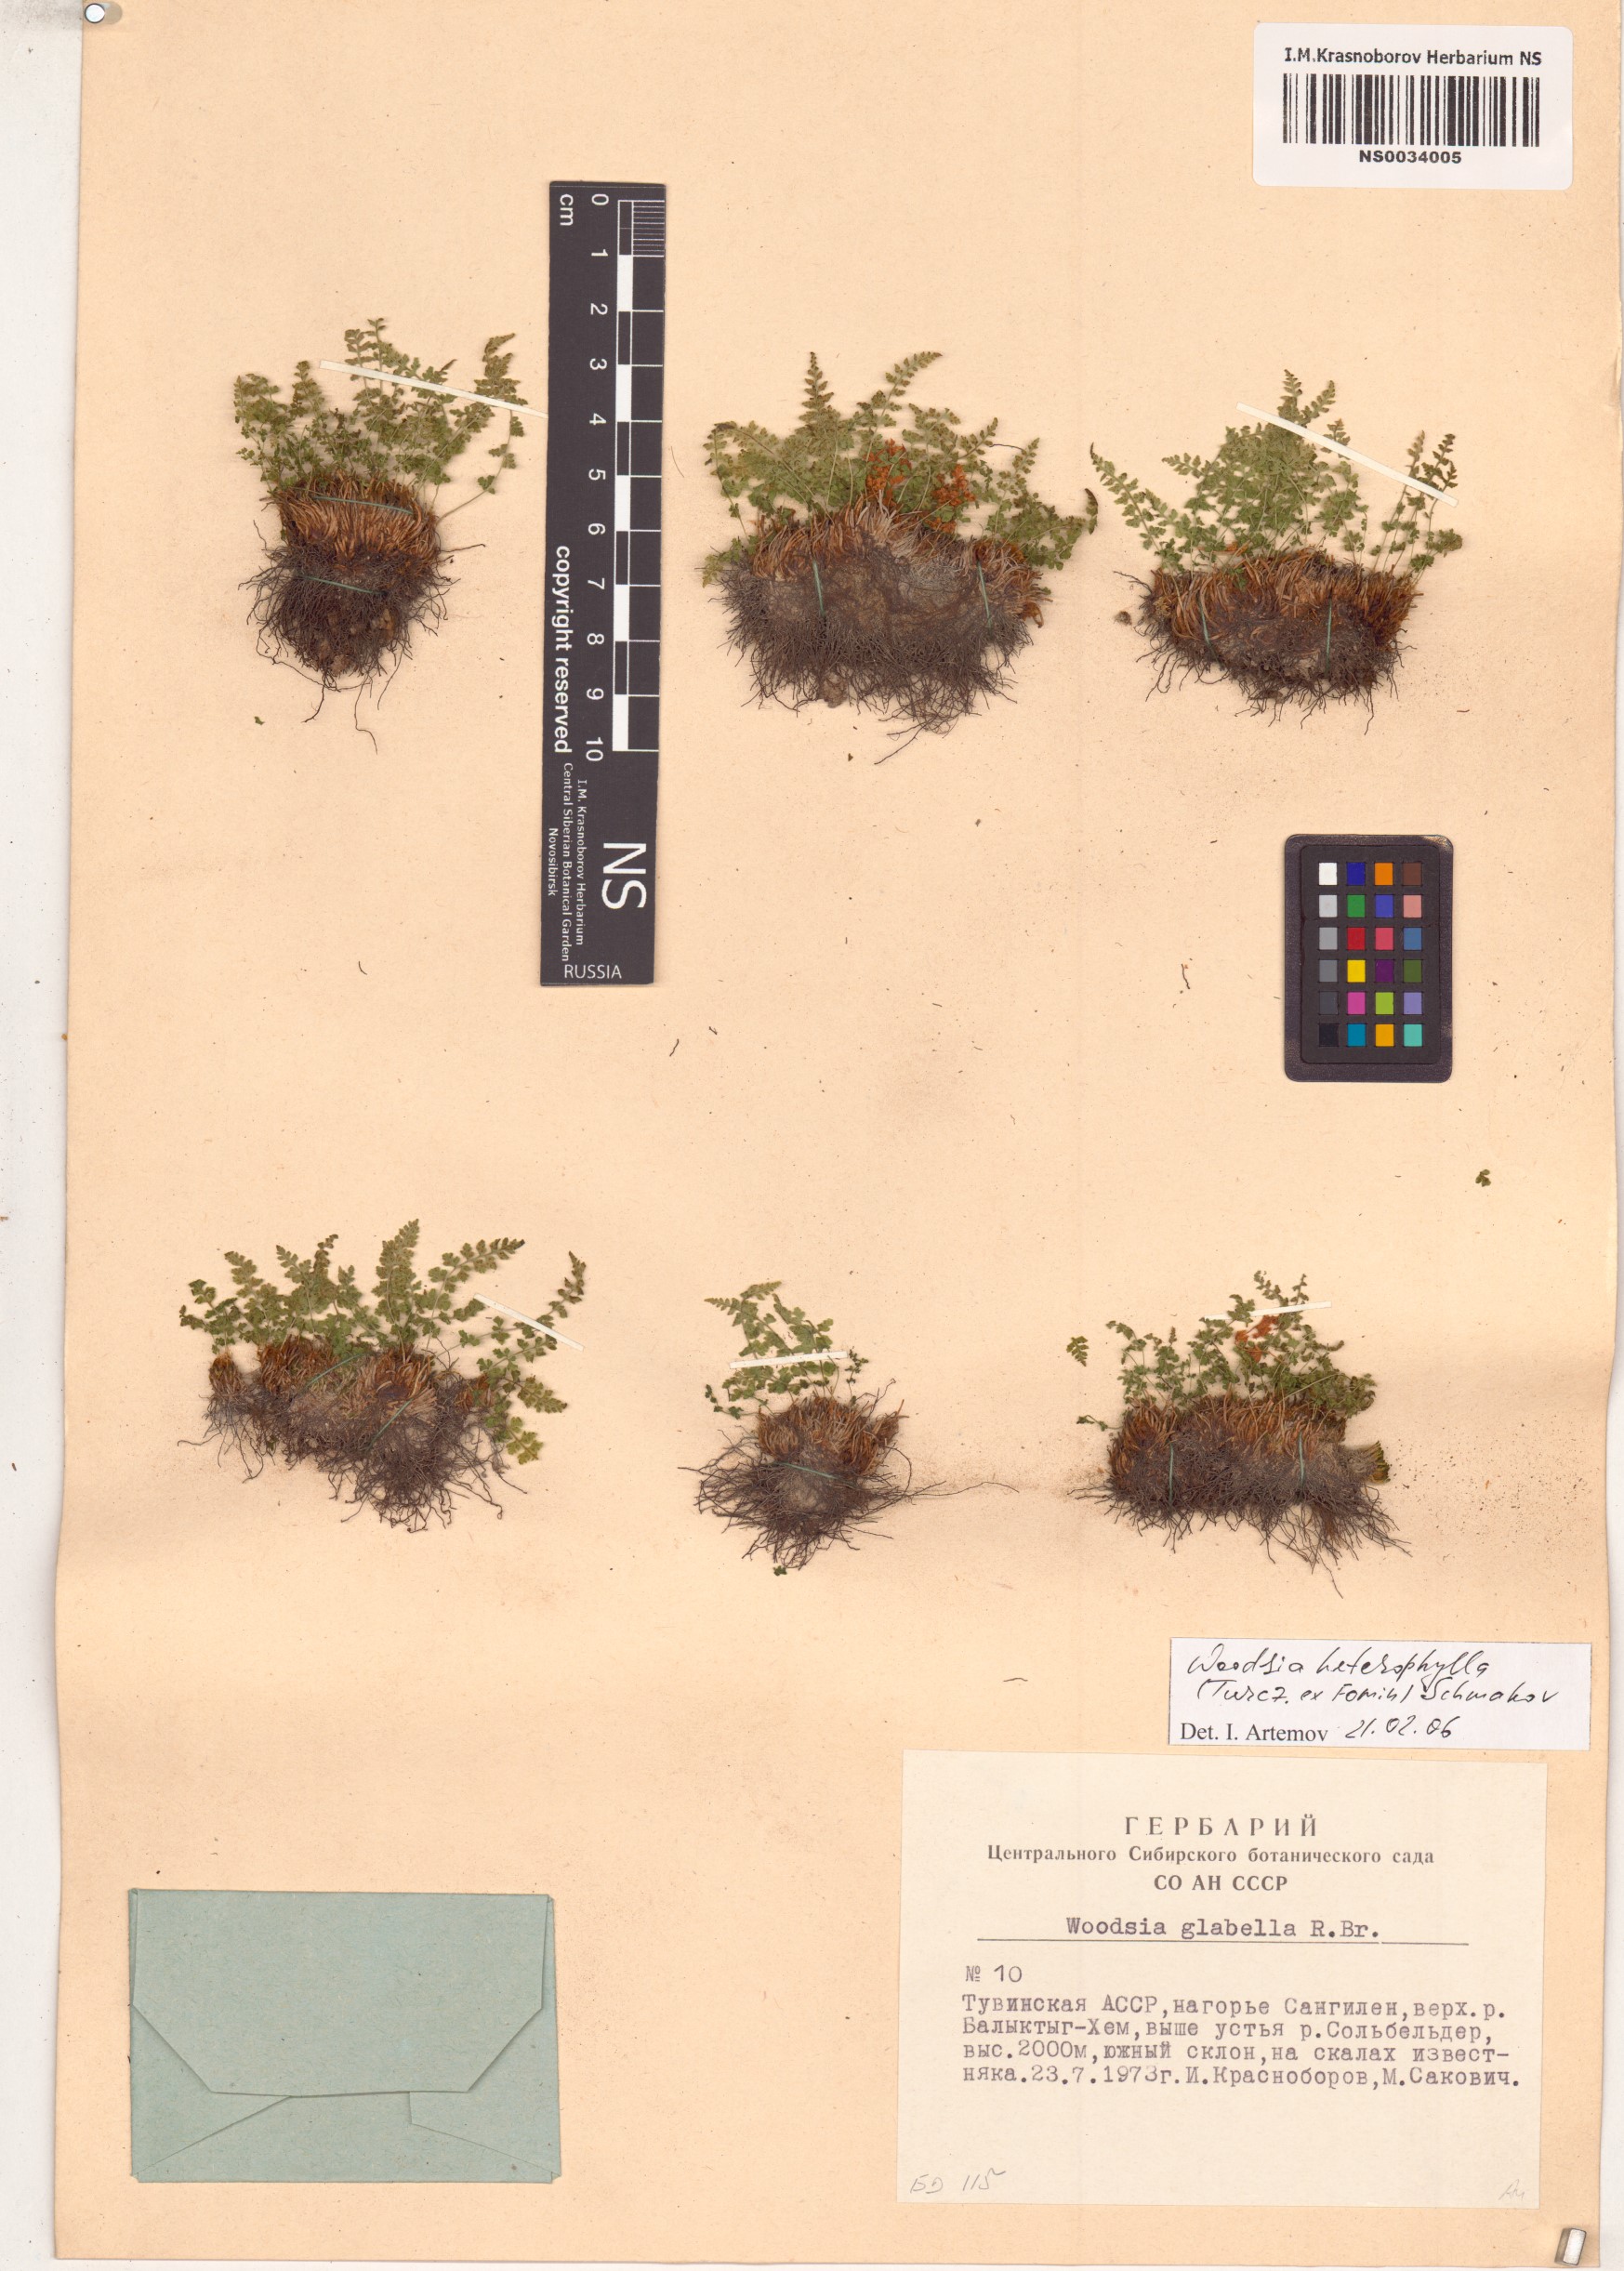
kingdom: Plantae
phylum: Tracheophyta
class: Polypodiopsida
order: Polypodiales
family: Woodsiaceae
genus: Woodsia
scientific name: Woodsia pulchella
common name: Graceful woodsia
